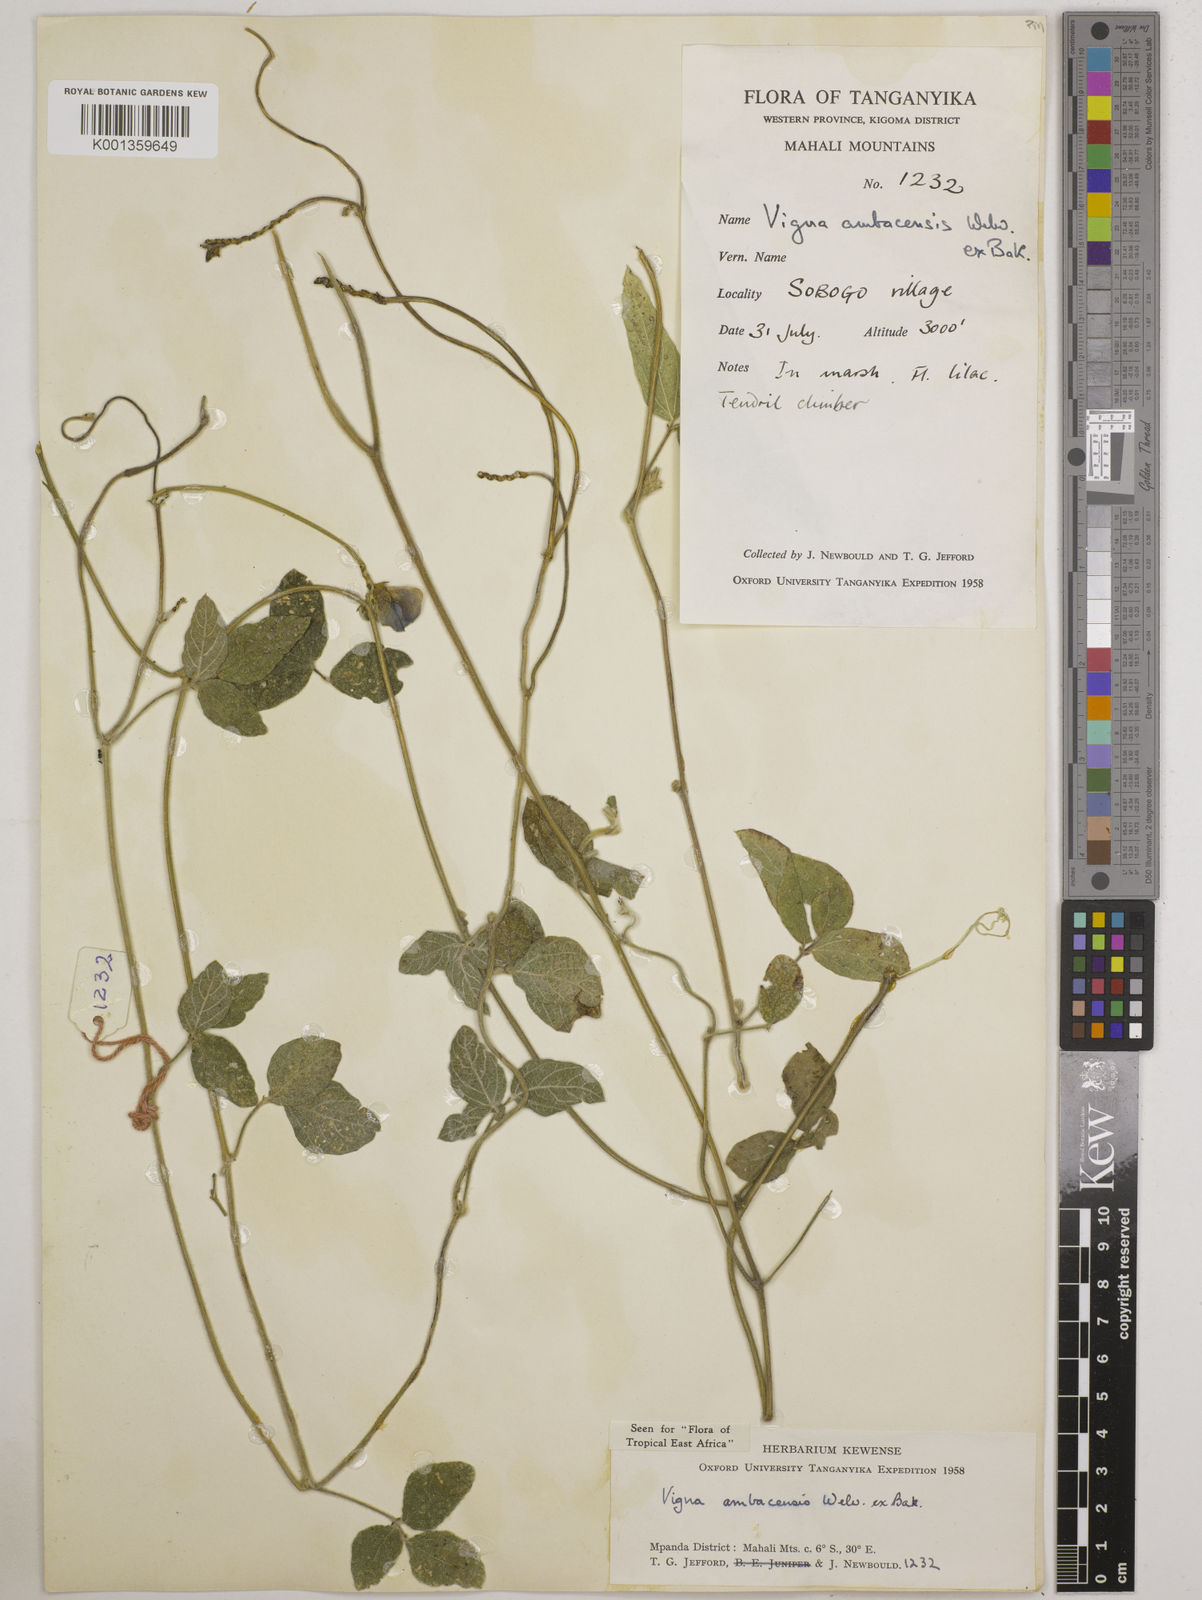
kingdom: Plantae
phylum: Tracheophyta
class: Magnoliopsida
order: Fabales
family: Fabaceae
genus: Vigna
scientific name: Vigna ambacensis
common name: Tsarkiyan zomo
